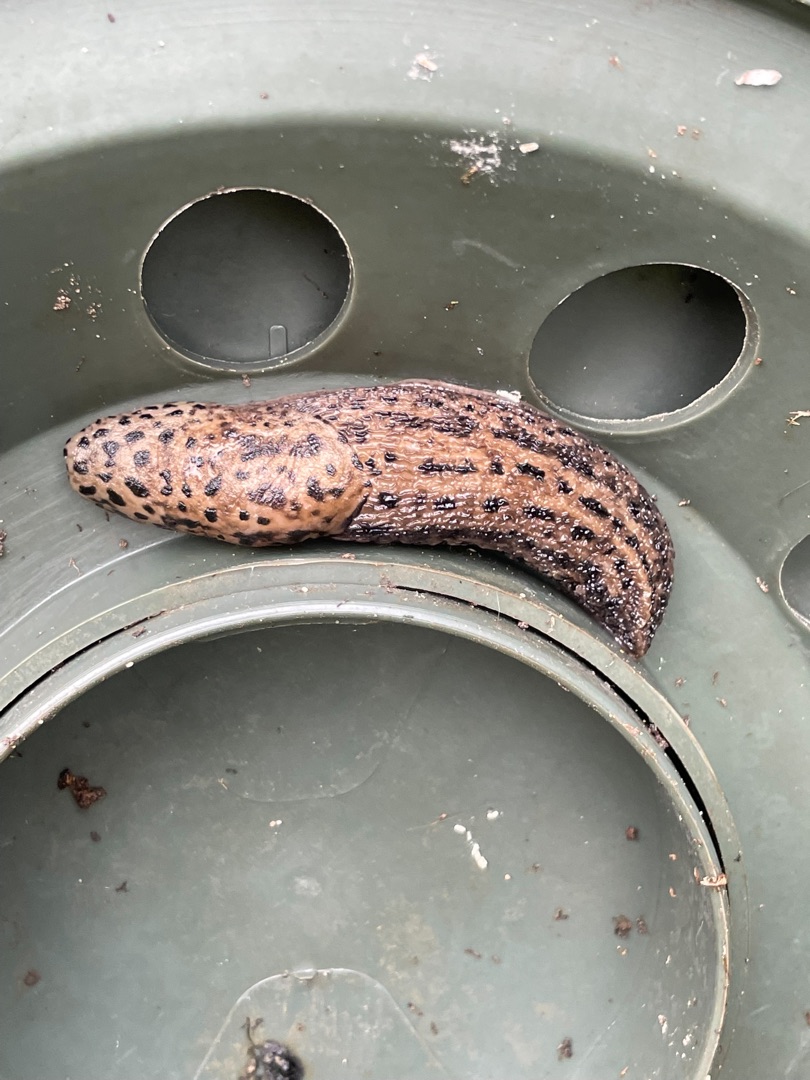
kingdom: Animalia
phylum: Mollusca
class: Gastropoda
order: Stylommatophora
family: Limacidae
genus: Limax
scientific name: Limax maximus
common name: Pantersnegl
